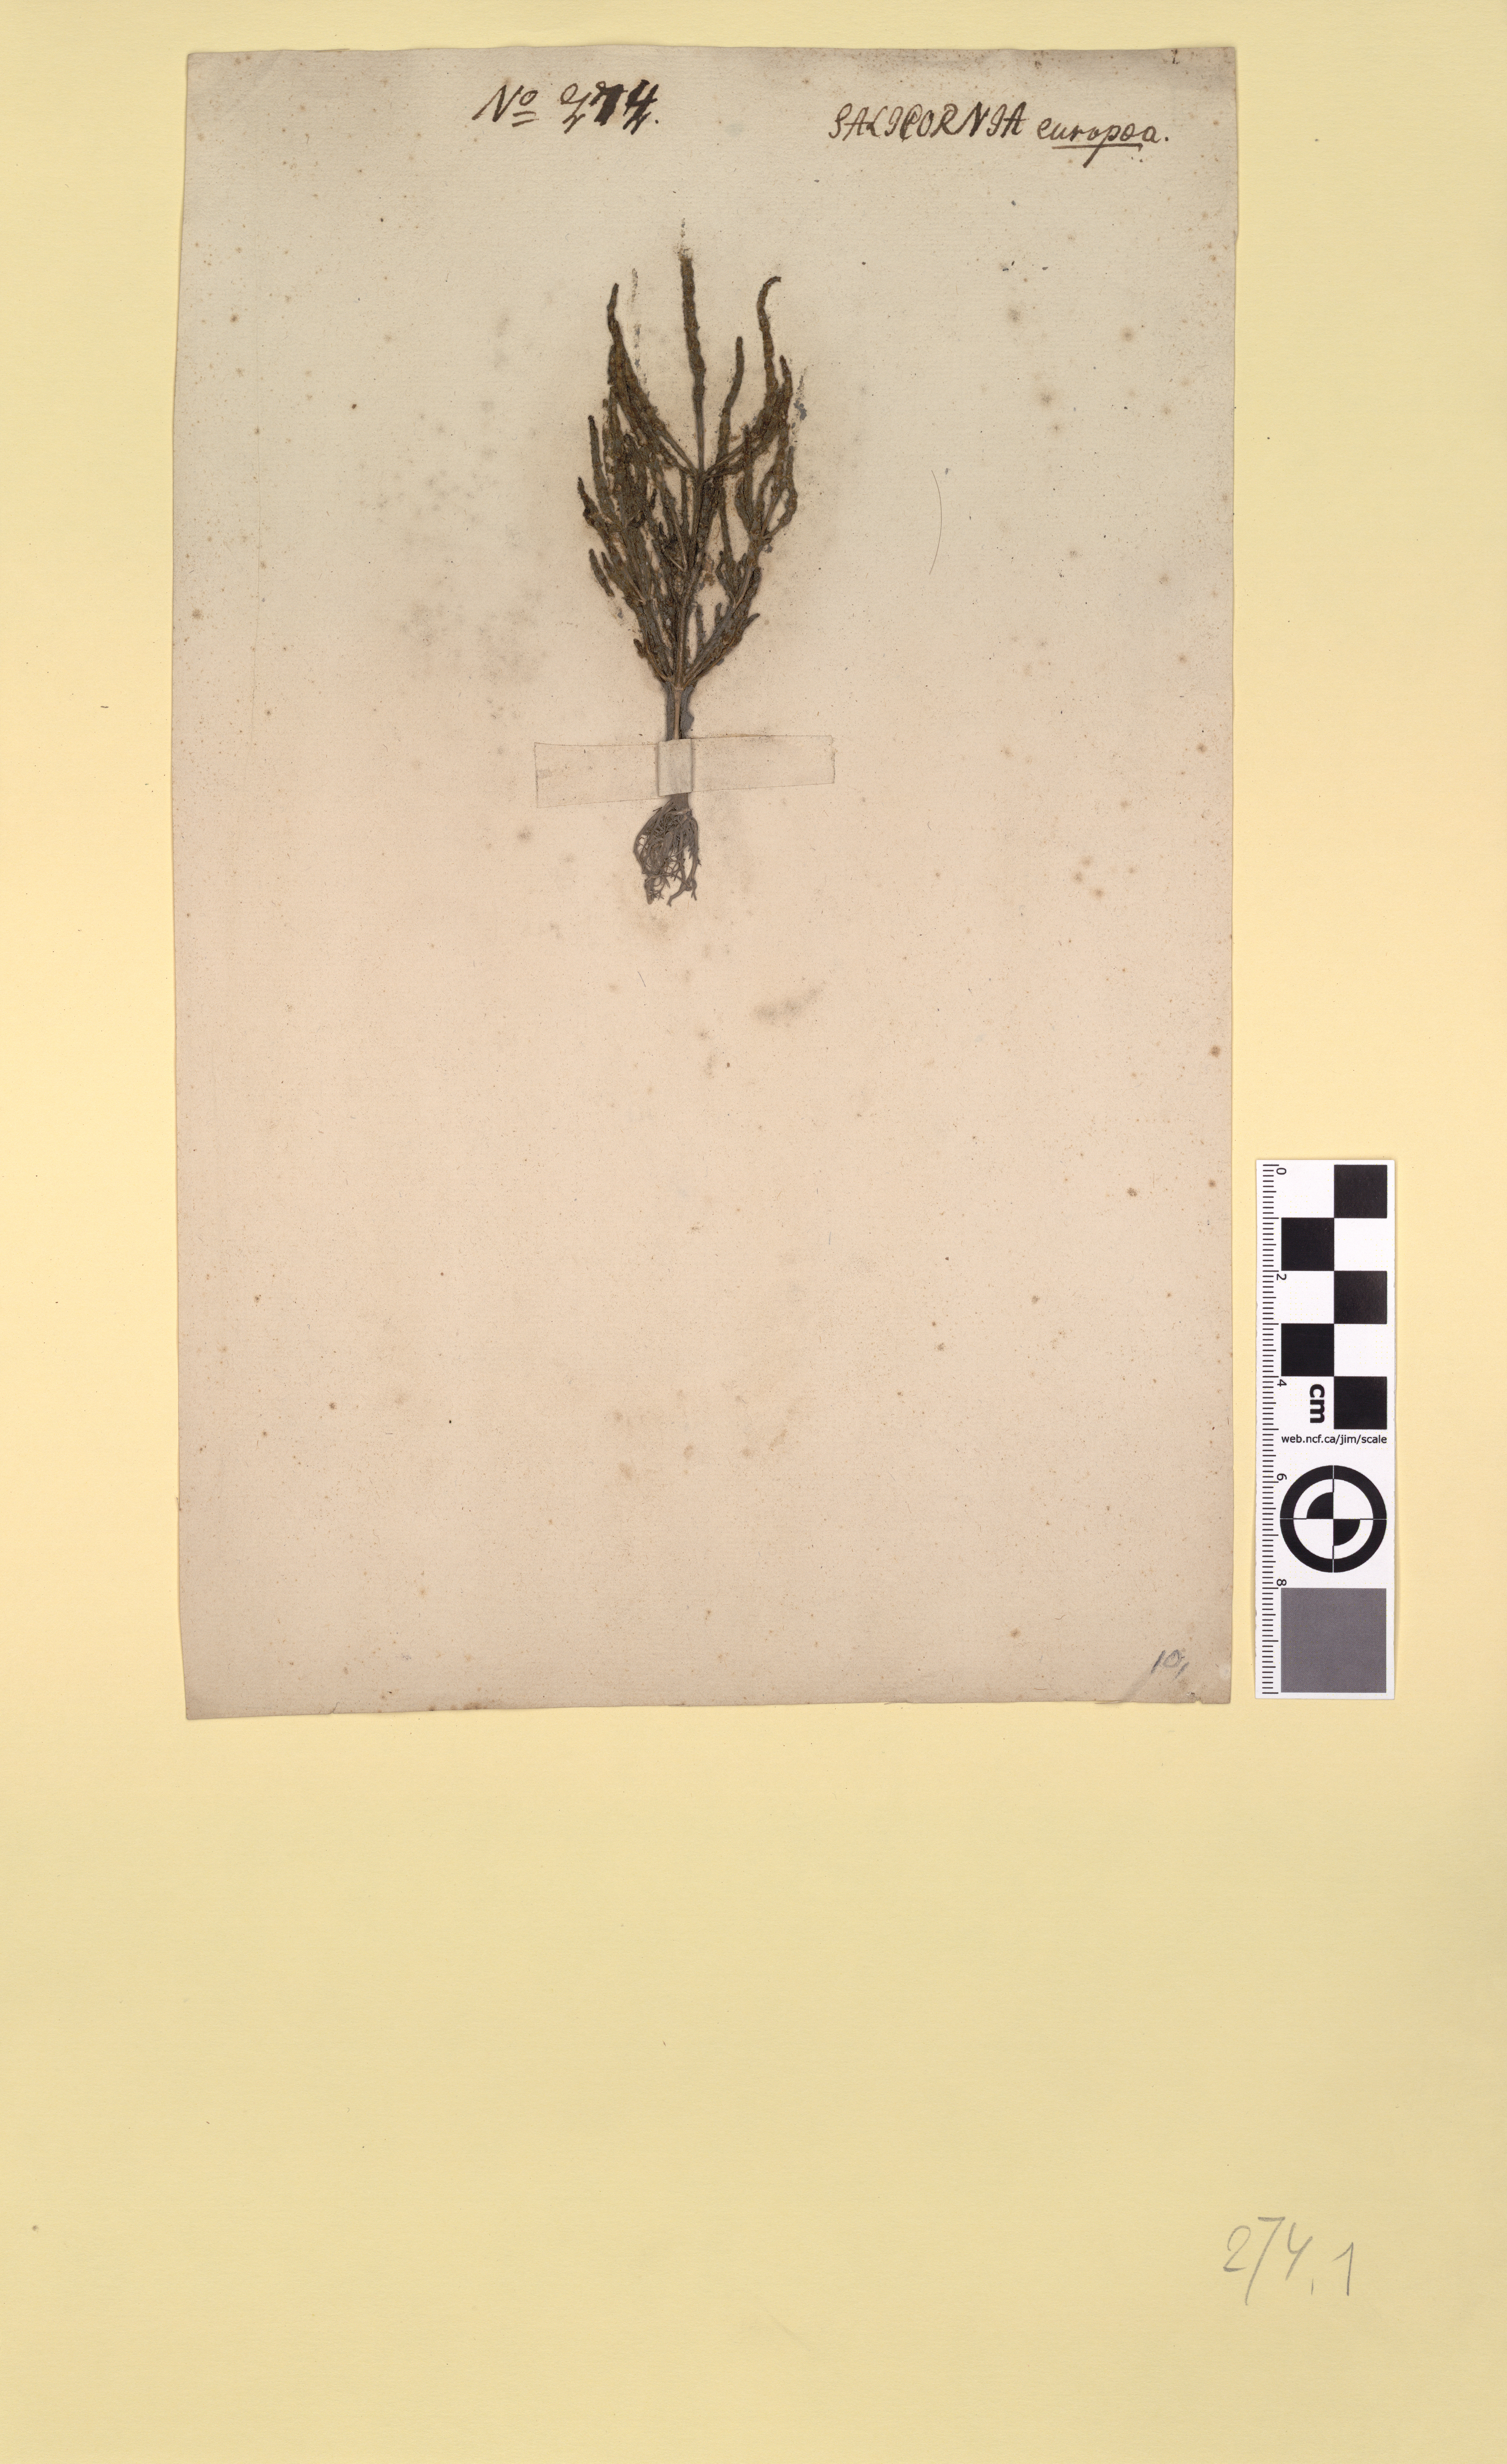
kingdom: Plantae
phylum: Tracheophyta
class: Magnoliopsida
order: Caryophyllales
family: Amaranthaceae
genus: Salicornia
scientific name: Salicornia europaea
